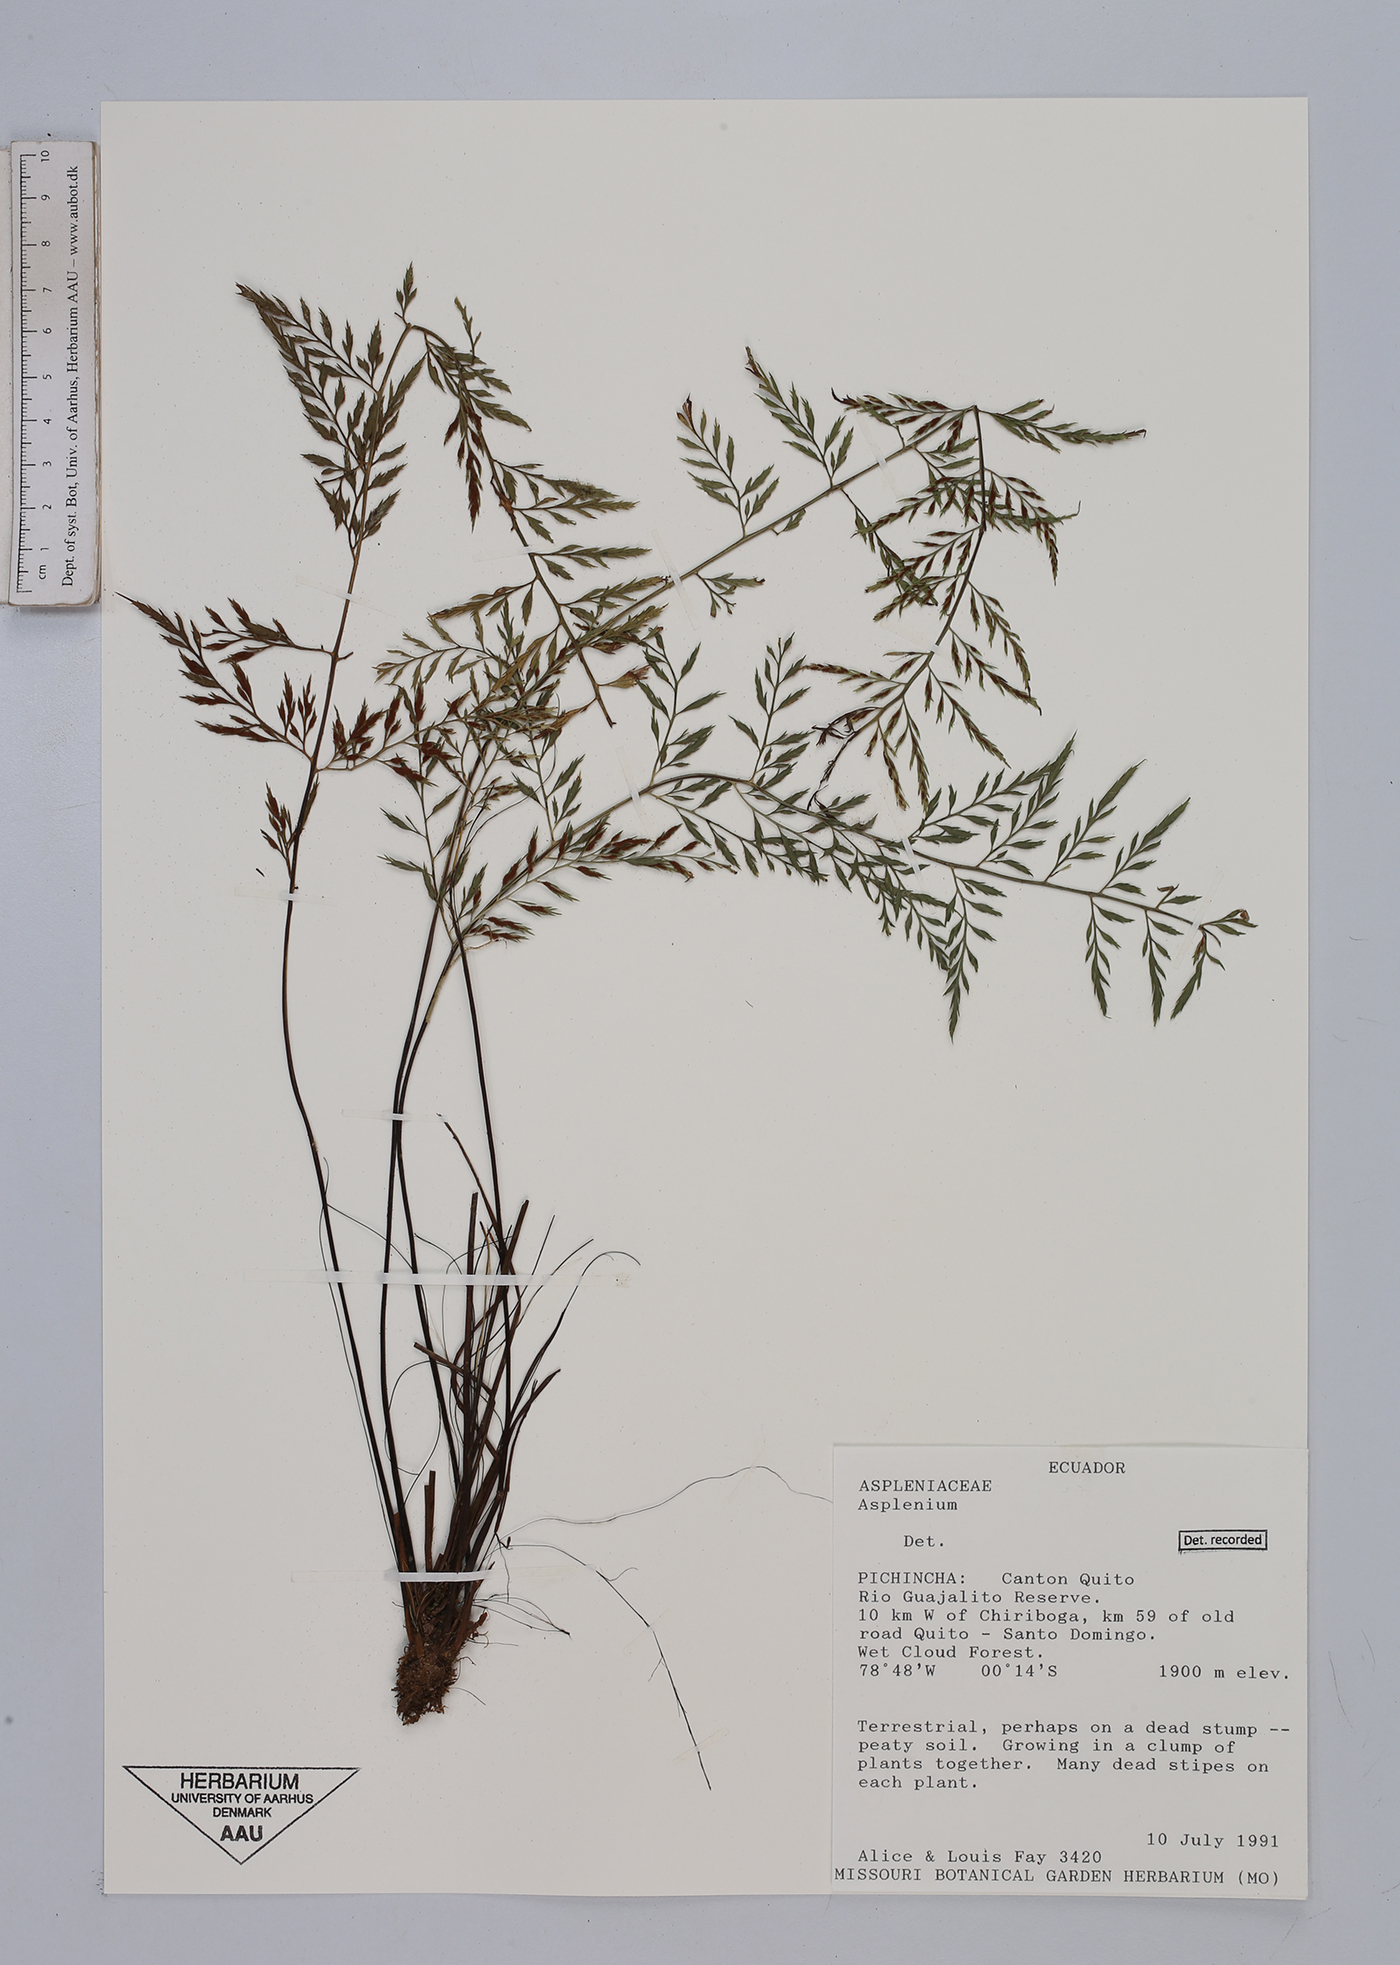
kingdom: Plantae
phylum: Tracheophyta
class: Polypodiopsida
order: Polypodiales
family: Aspleniaceae
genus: Asplenium
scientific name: Asplenium
